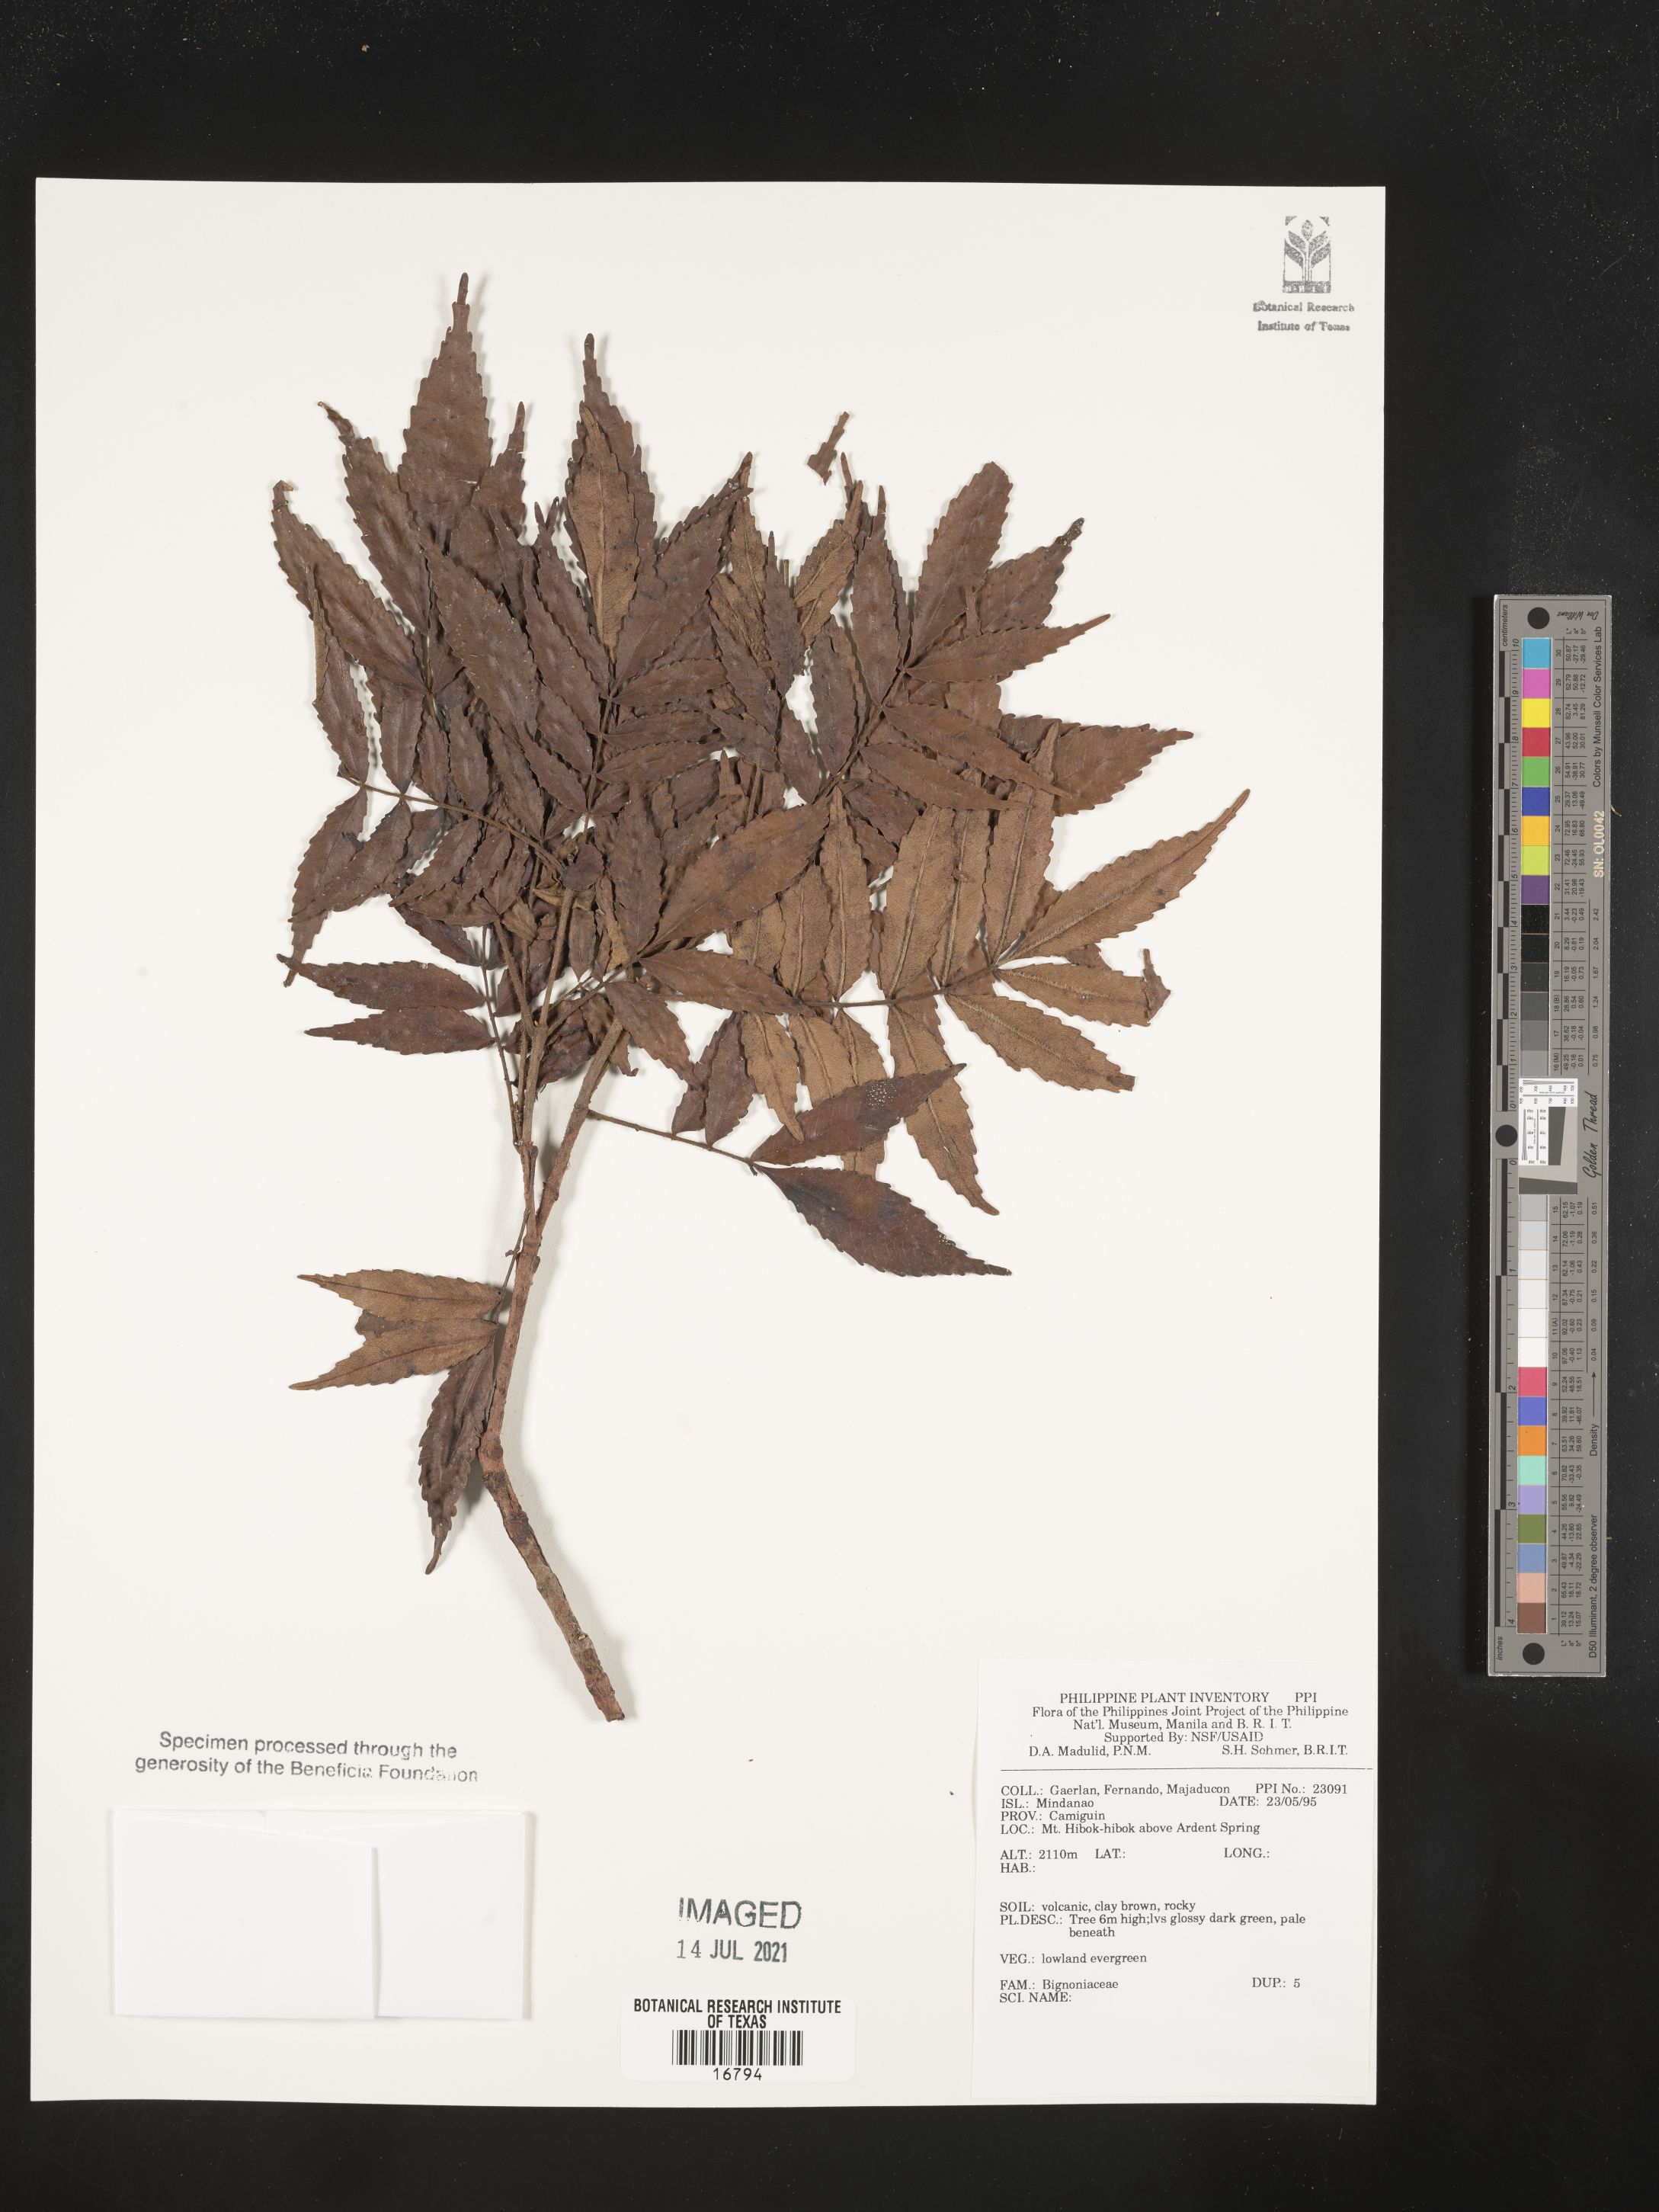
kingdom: Plantae
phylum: Tracheophyta
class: Magnoliopsida
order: Lamiales
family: Bignoniaceae
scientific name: Bignoniaceae
